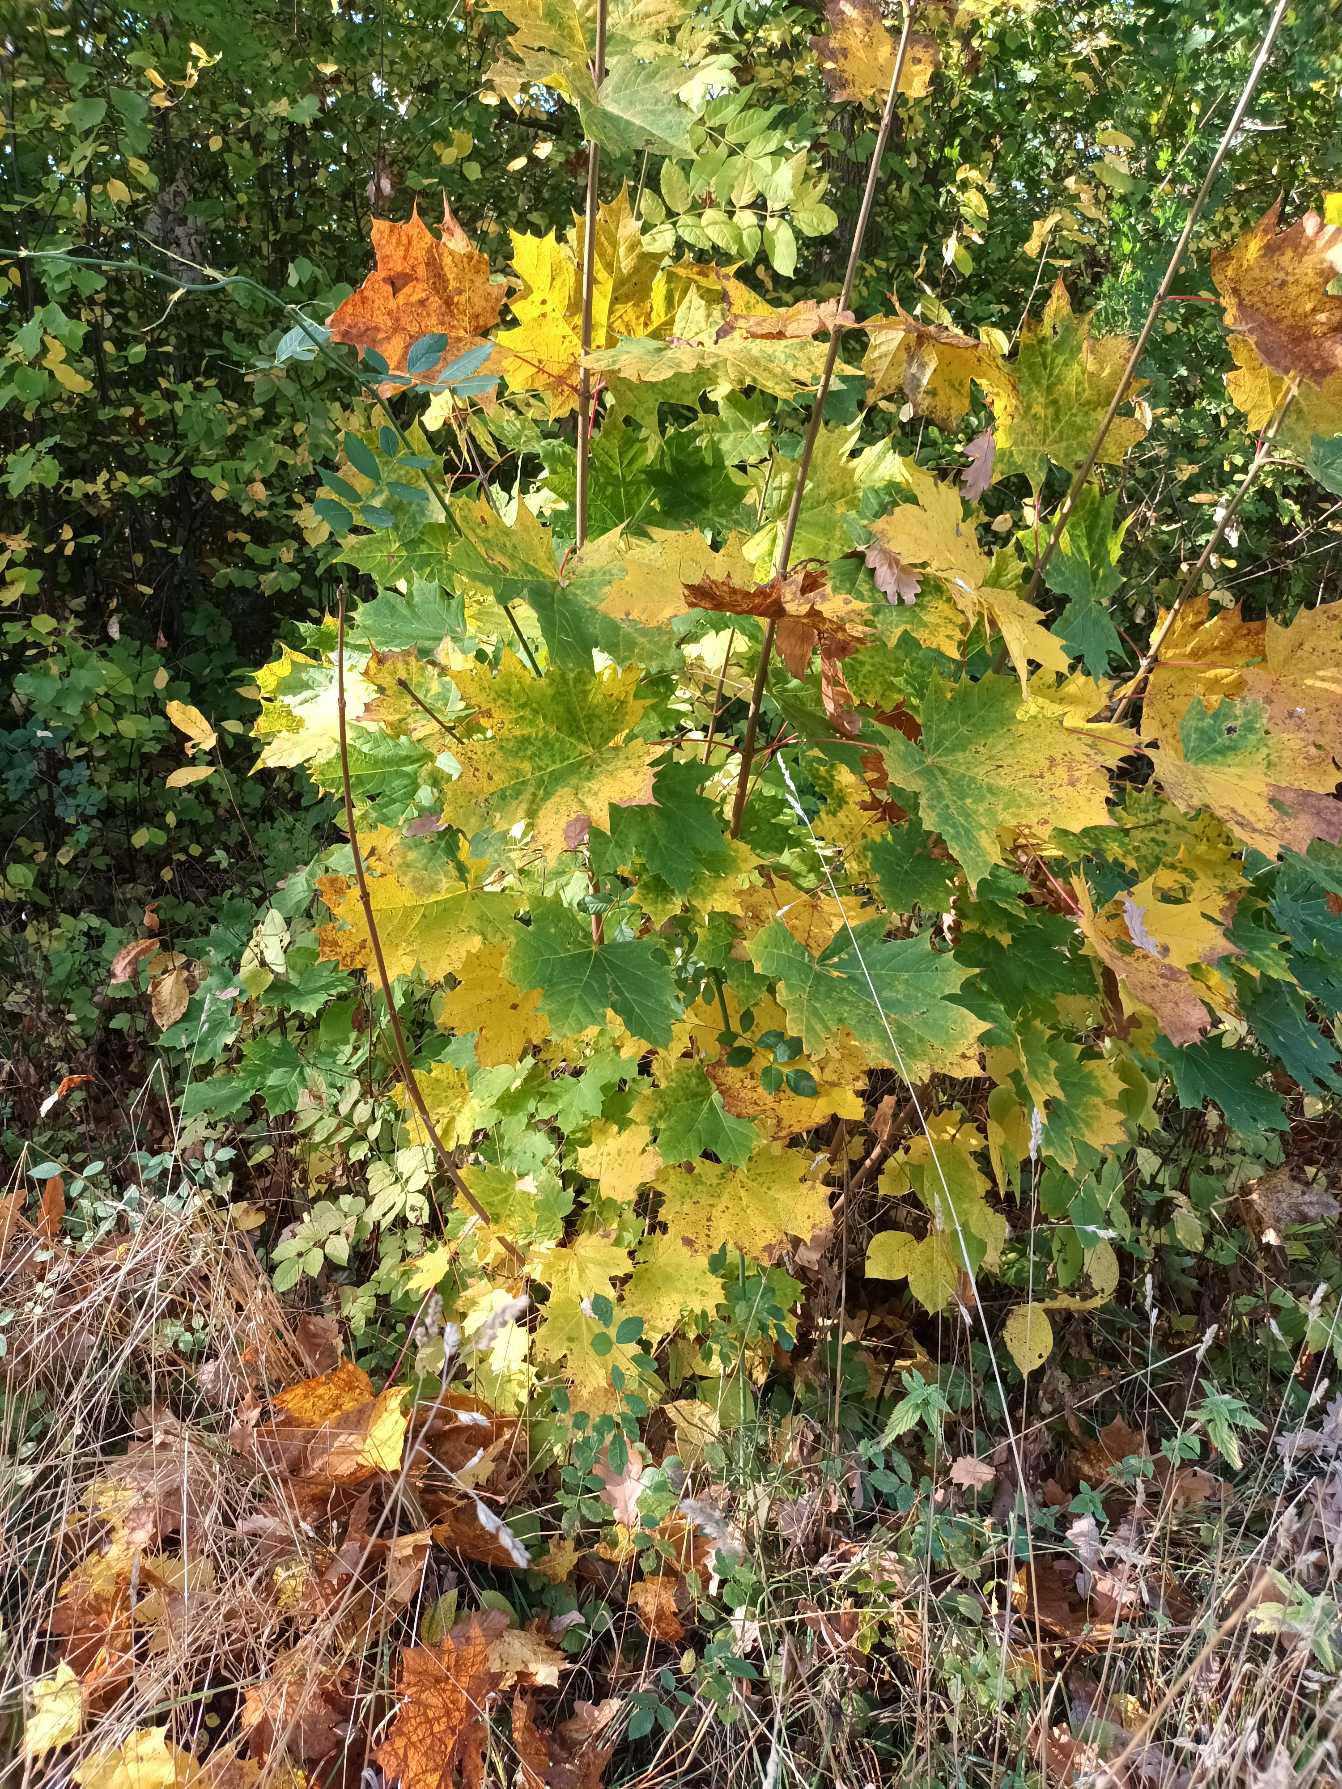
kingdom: Plantae
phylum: Tracheophyta
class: Magnoliopsida
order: Sapindales
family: Sapindaceae
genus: Acer
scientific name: Acer platanoides
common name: Spids-løn
